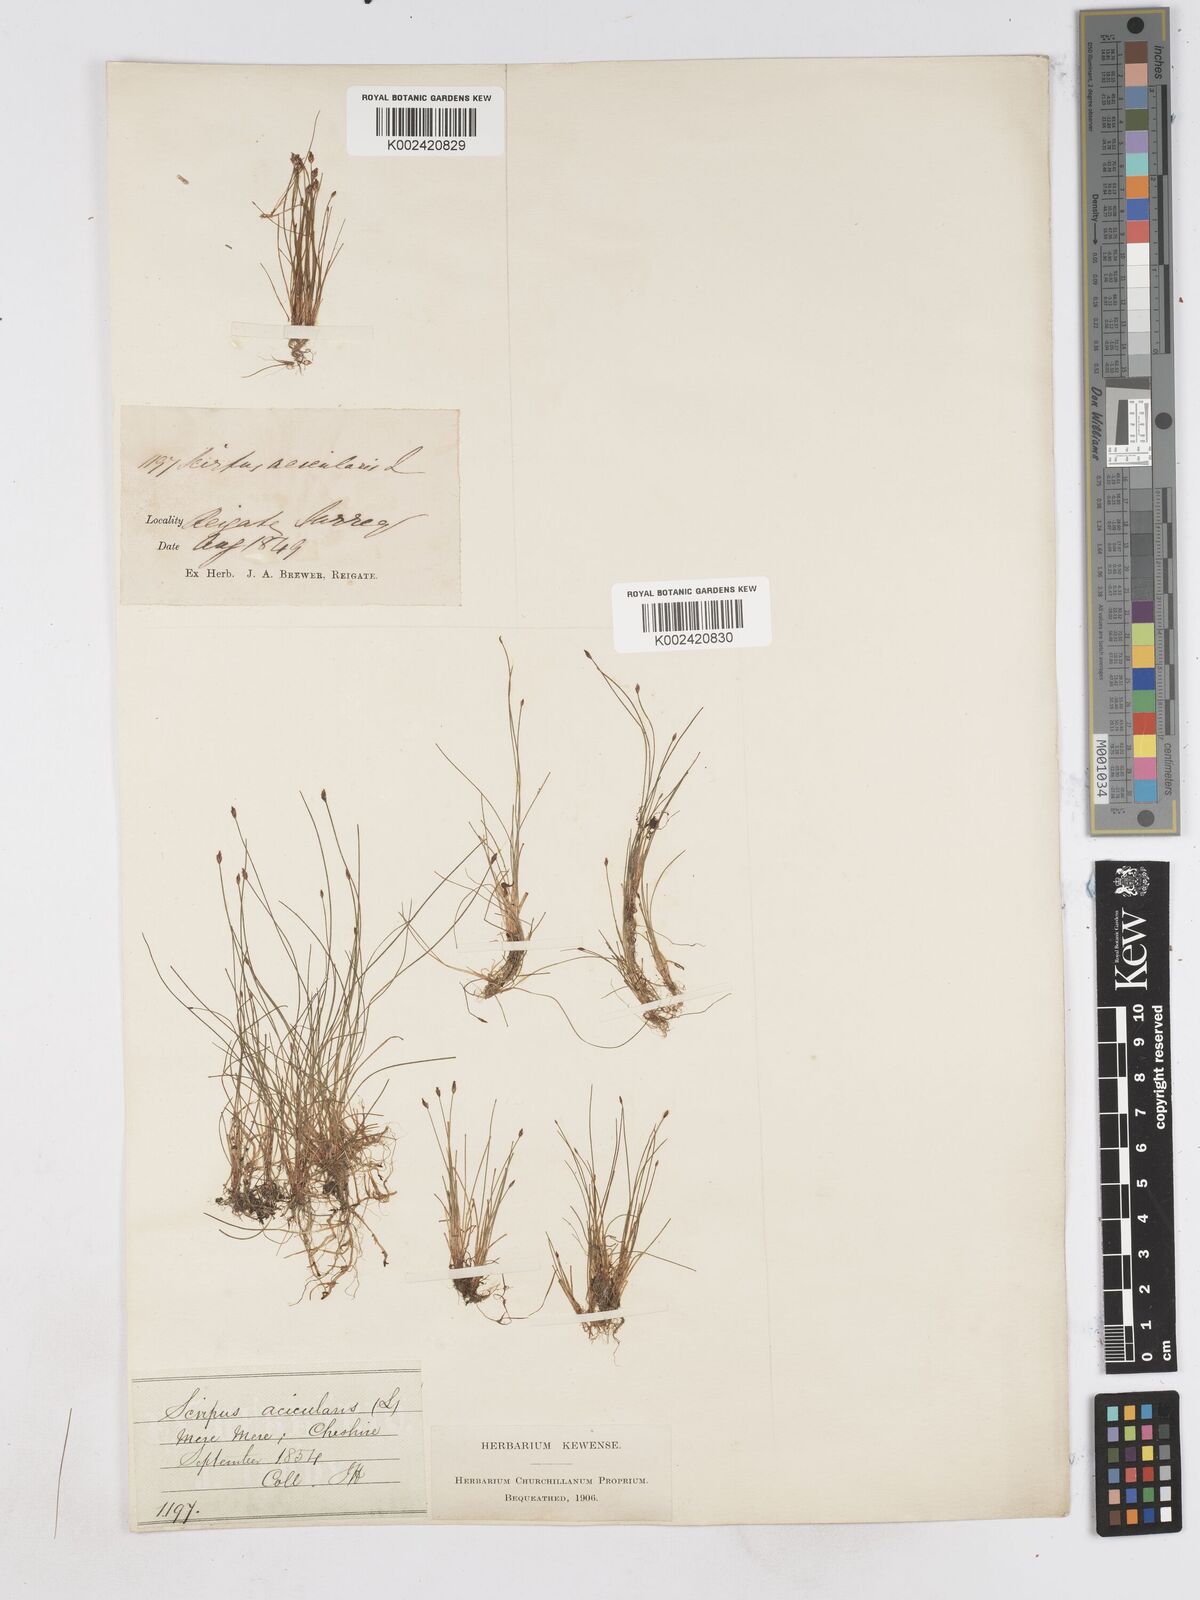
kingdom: Plantae
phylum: Tracheophyta
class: Liliopsida
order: Poales
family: Cyperaceae
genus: Eleocharis
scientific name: Eleocharis acicularis
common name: Needle spike-rush
